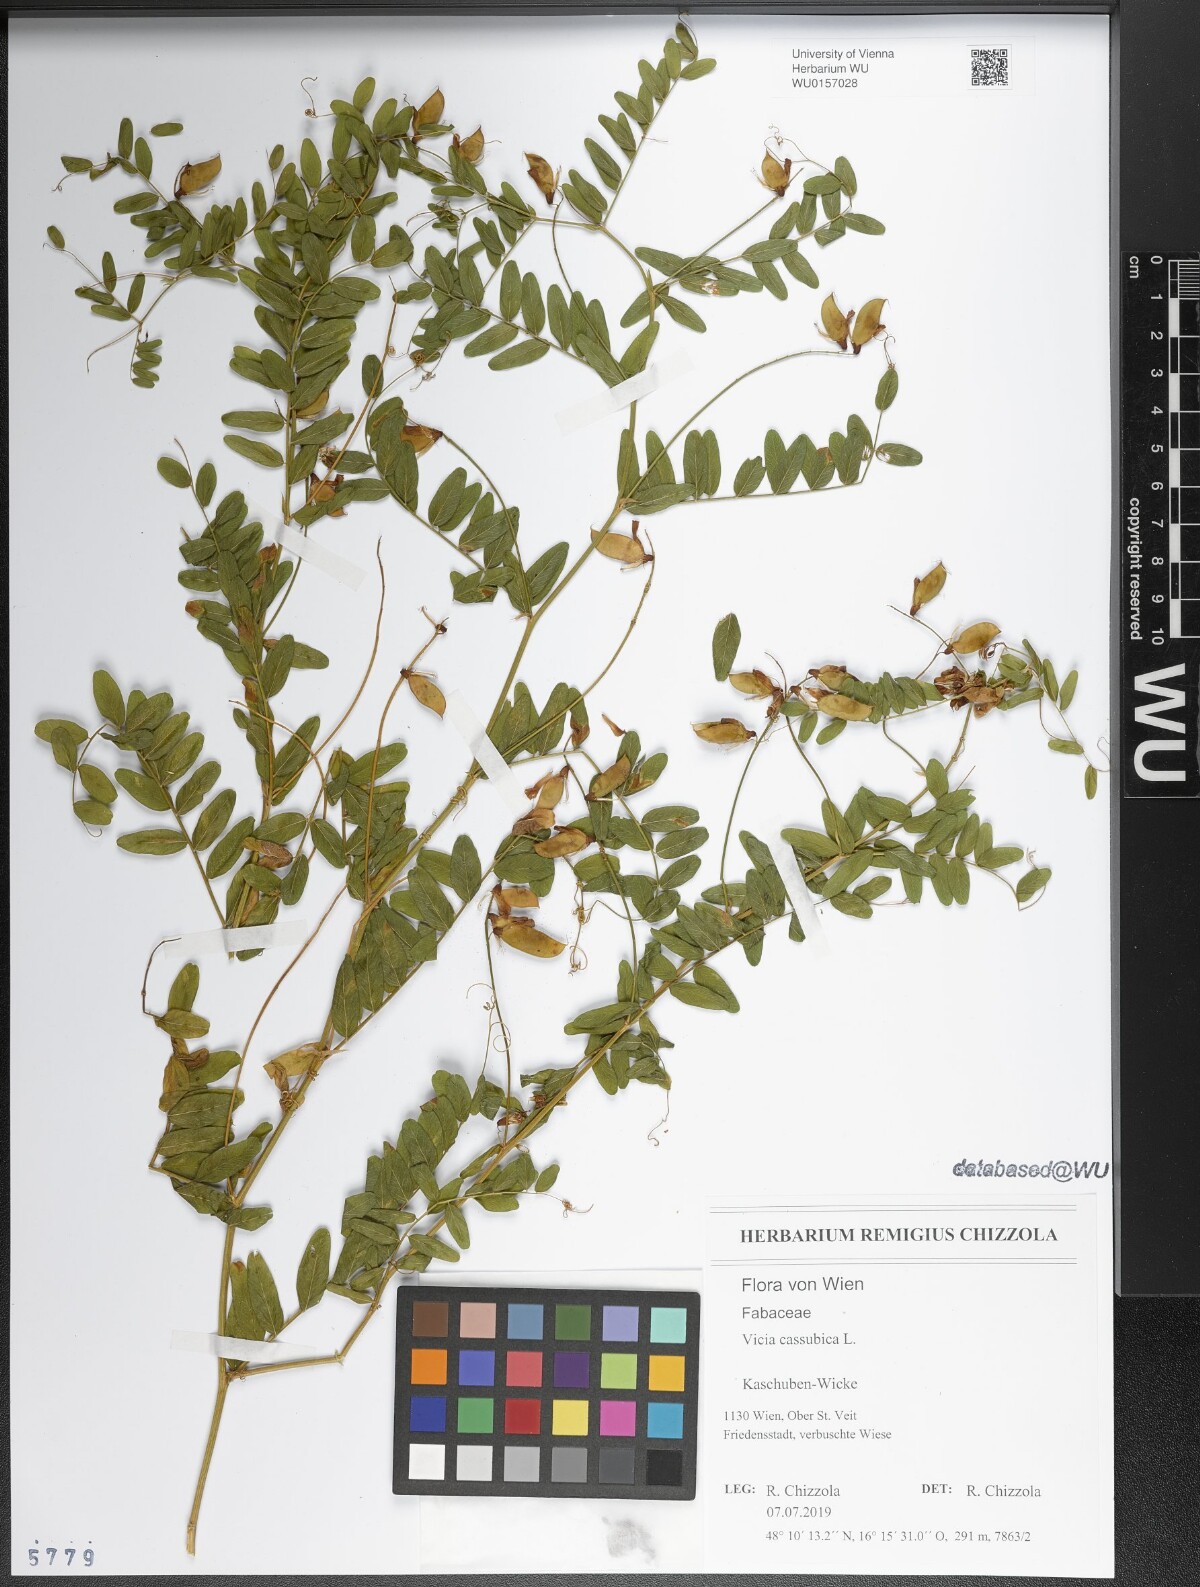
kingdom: Plantae
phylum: Tracheophyta
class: Magnoliopsida
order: Fabales
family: Fabaceae
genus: Vicia
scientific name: Vicia cassubica
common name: Danzig vetch
